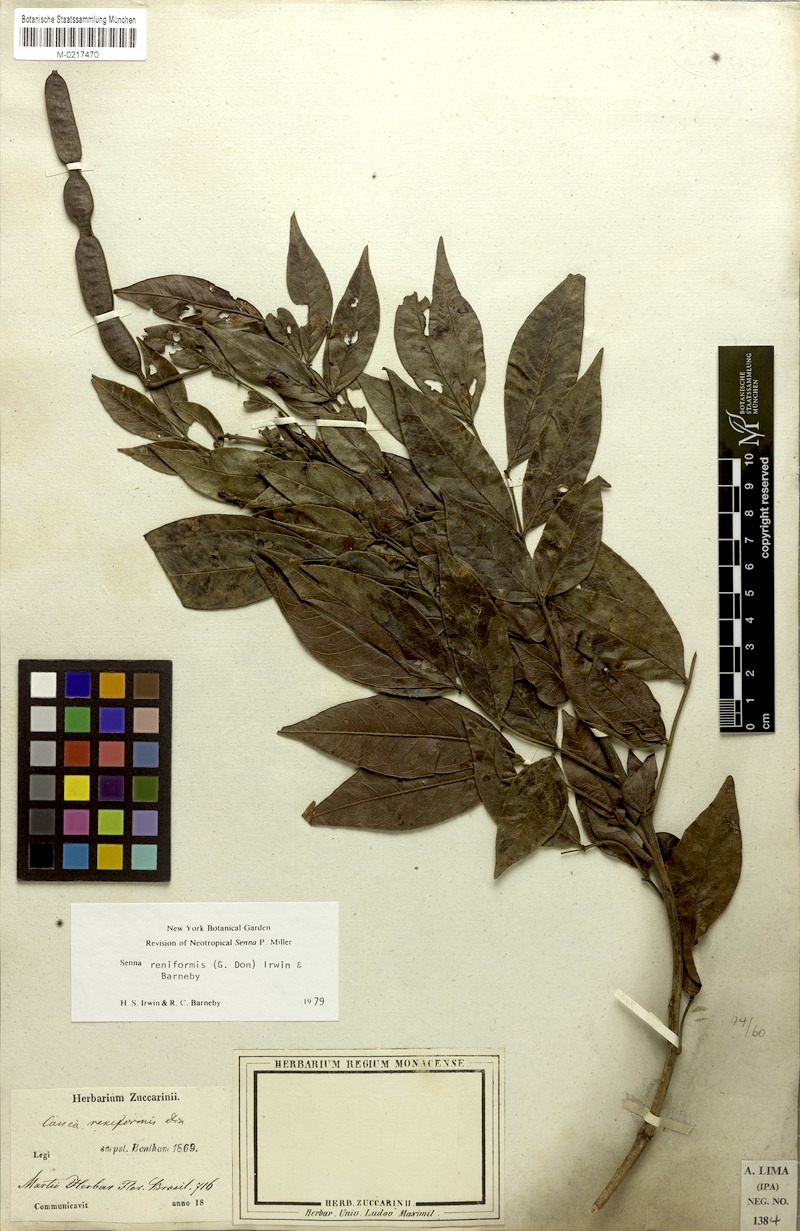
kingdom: Plantae
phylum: Tracheophyta
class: Magnoliopsida
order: Fabales
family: Fabaceae
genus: Senna
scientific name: Senna reniformis
